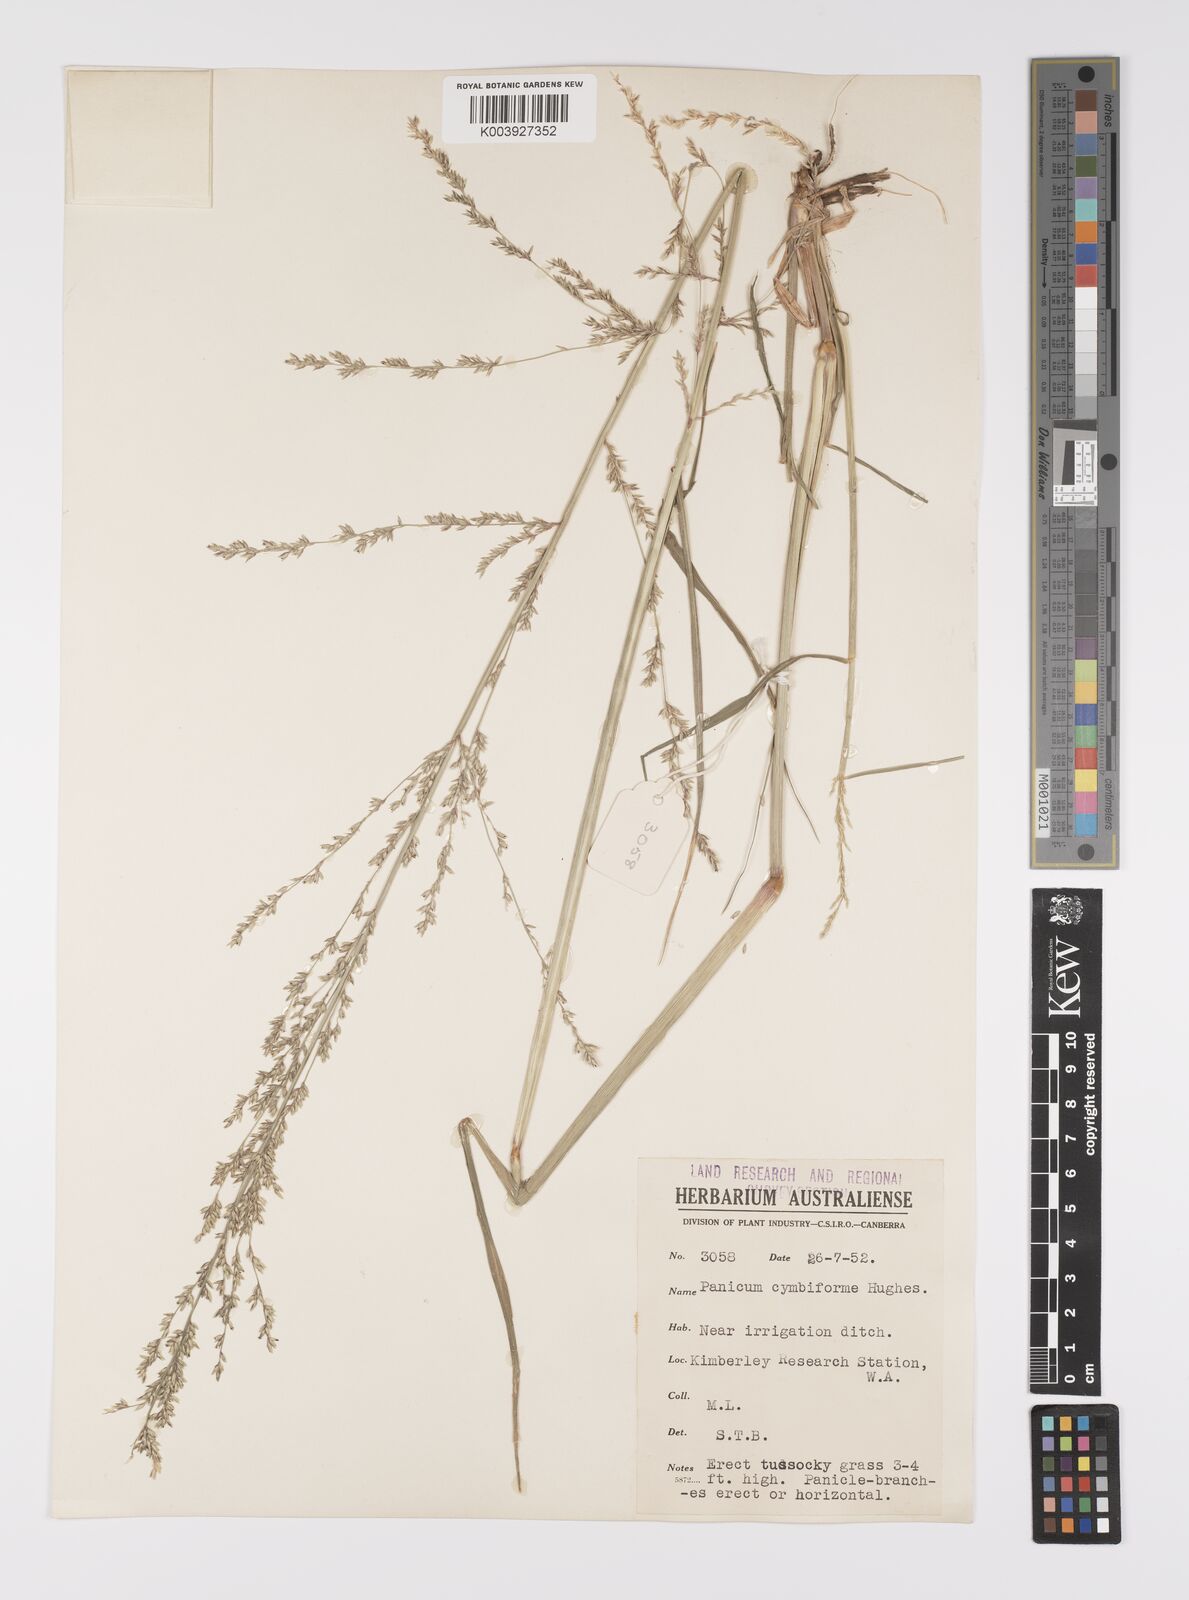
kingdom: Plantae
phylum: Tracheophyta
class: Liliopsida
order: Poales
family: Poaceae
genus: Whiteochloa
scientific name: Whiteochloa cymbiformis
